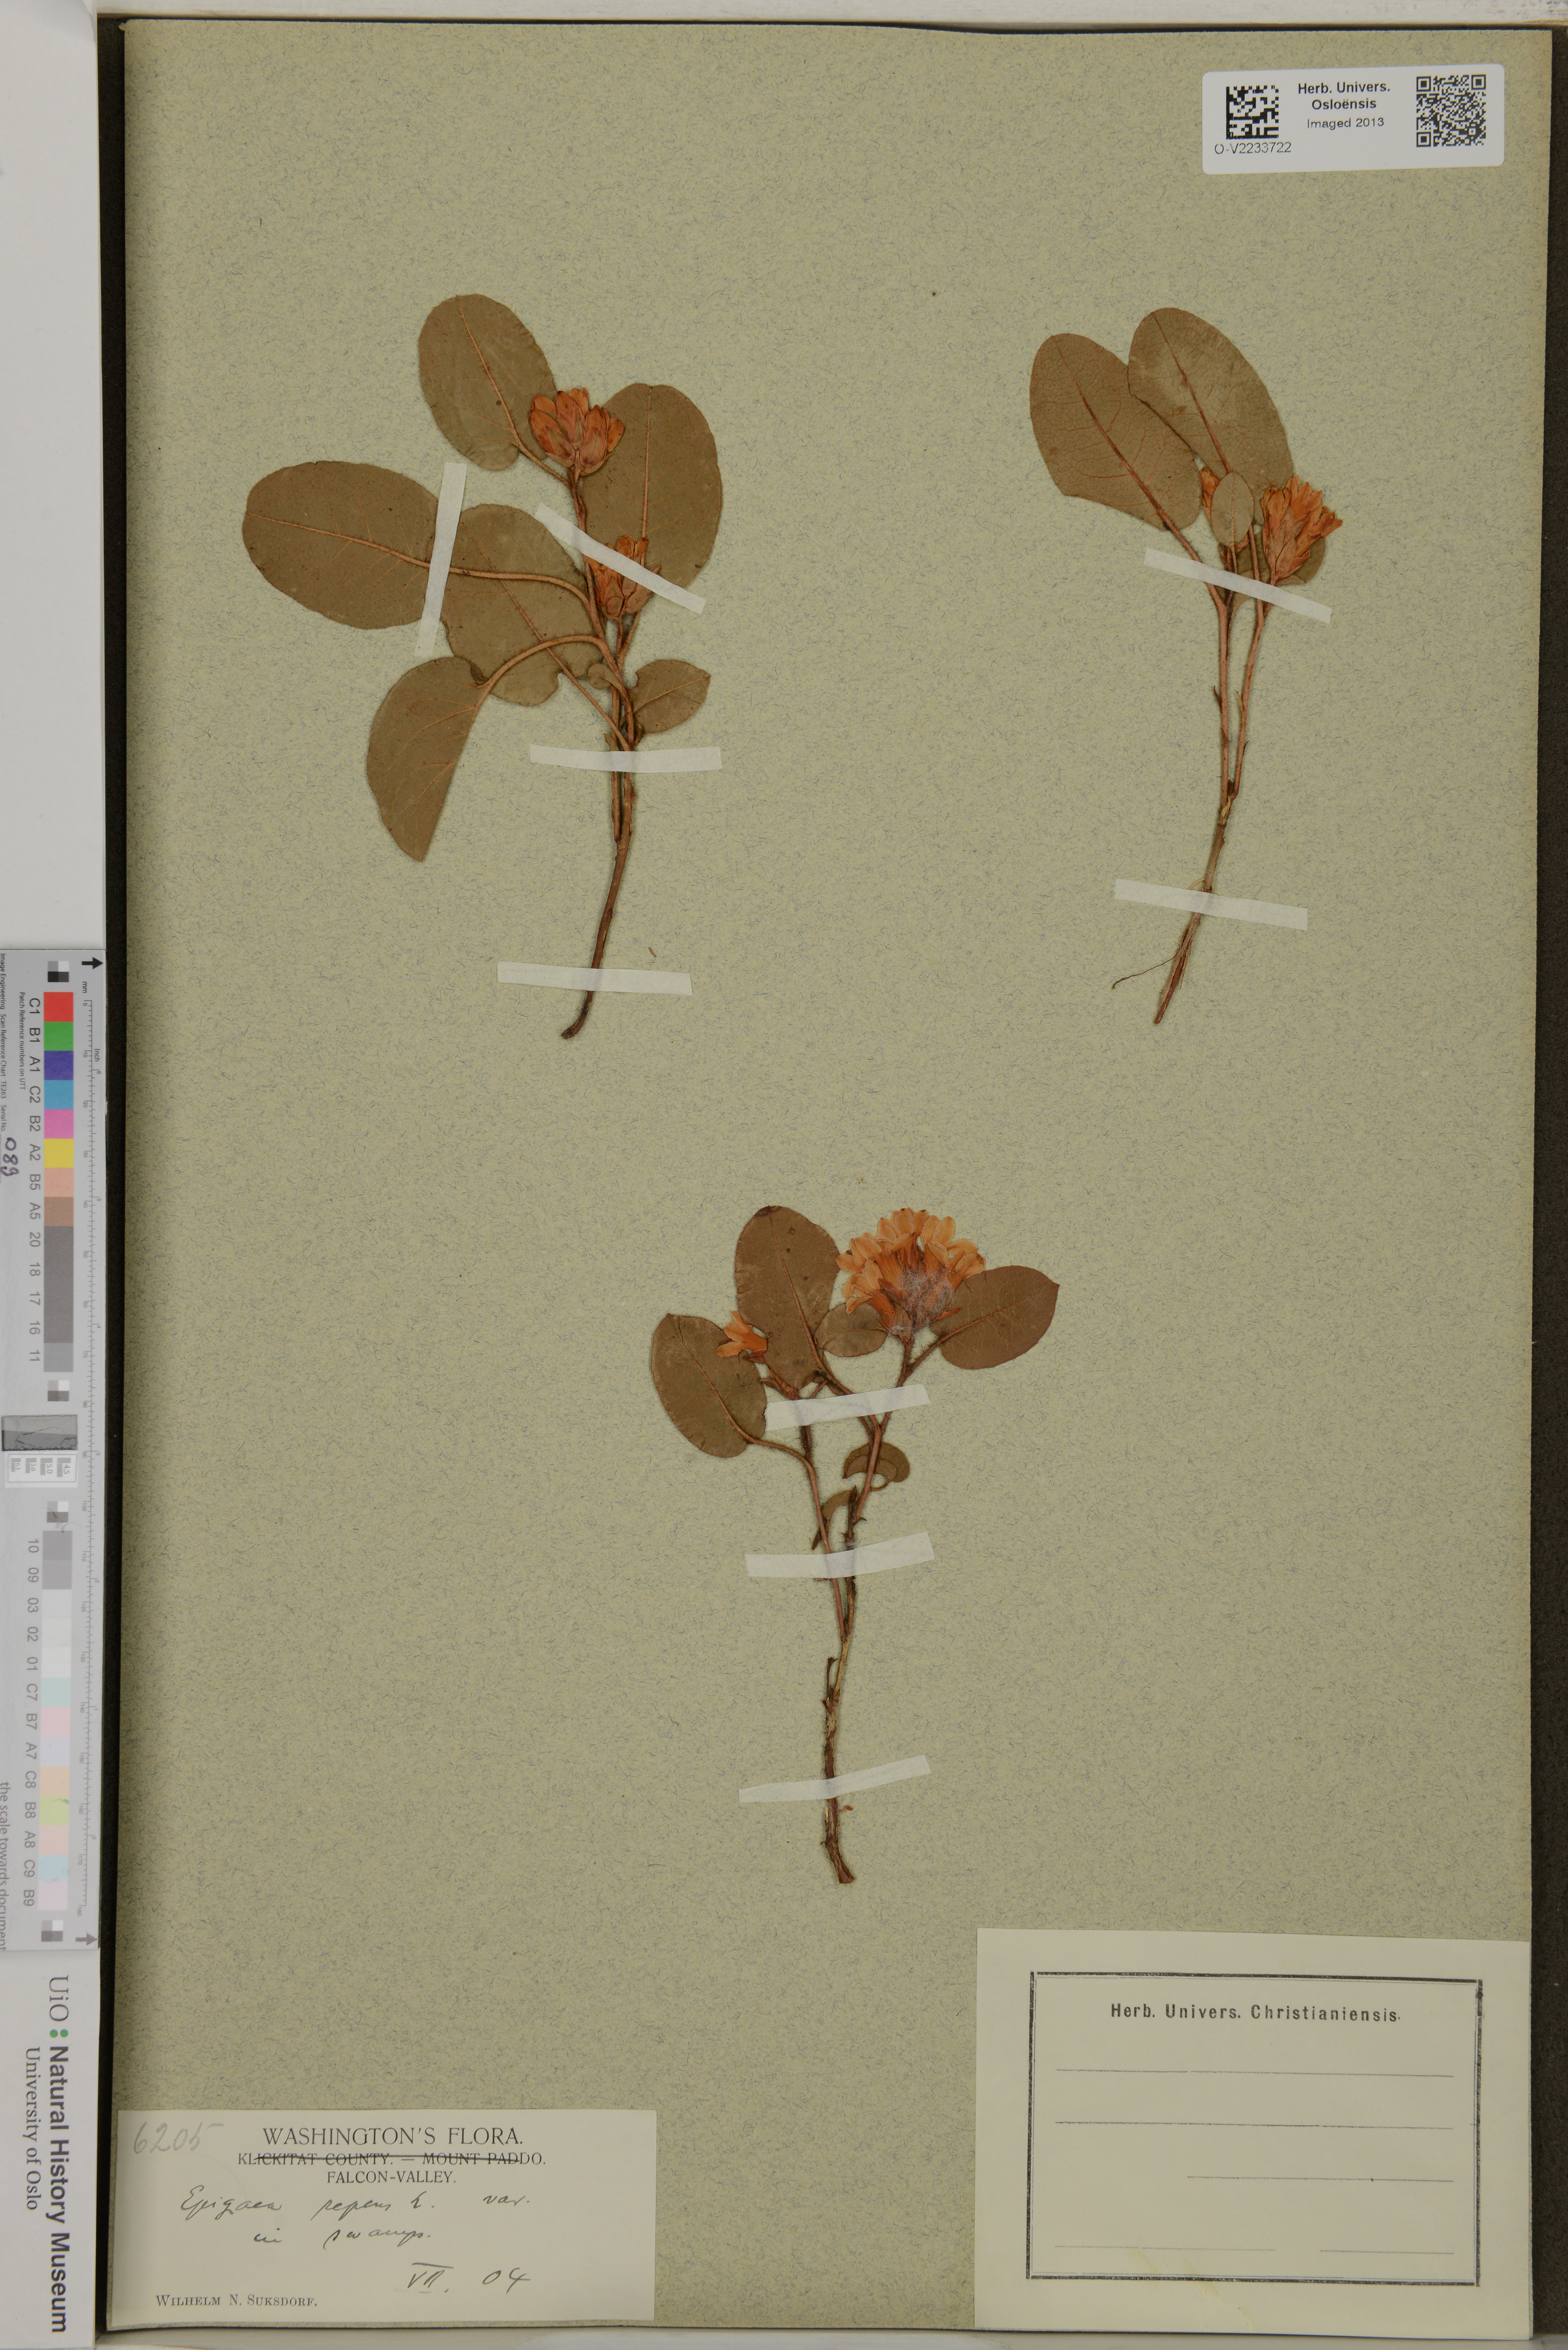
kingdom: Plantae
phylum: Tracheophyta
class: Magnoliopsida
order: Ericales
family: Ericaceae
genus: Epigaea
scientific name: Epigaea repens
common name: Gravelroot
